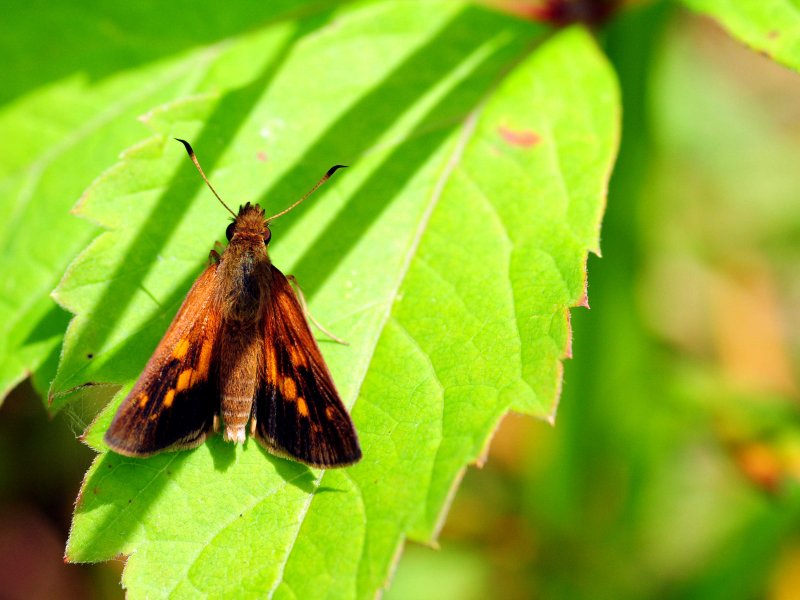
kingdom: Animalia
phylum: Arthropoda
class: Insecta
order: Lepidoptera
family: Hesperiidae
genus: Poanes
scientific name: Poanes viator
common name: Broad-winged Skipper
